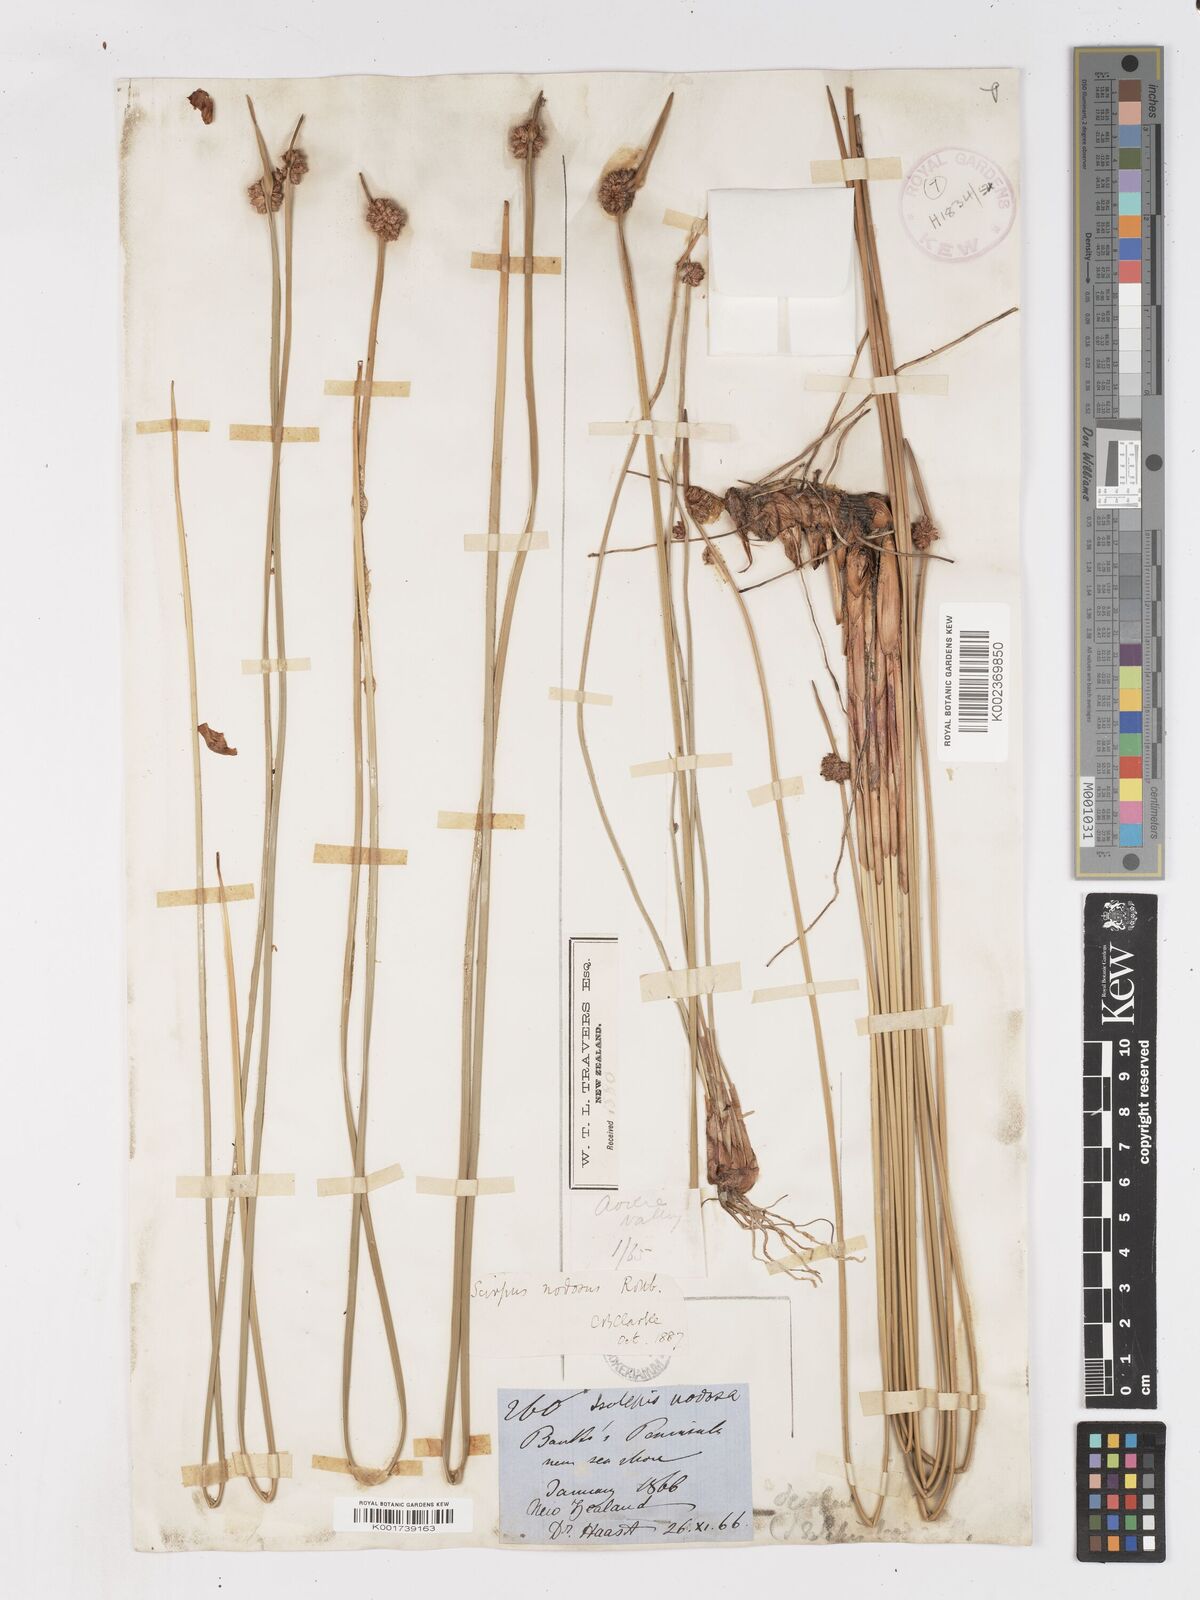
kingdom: Plantae
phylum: Tracheophyta
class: Liliopsida
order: Poales
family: Cyperaceae
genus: Ficinia
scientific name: Ficinia nodosa
